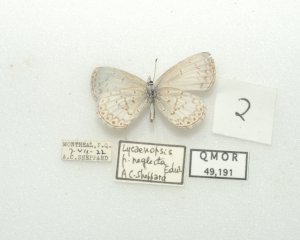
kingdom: Animalia
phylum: Arthropoda
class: Insecta
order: Lepidoptera
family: Lycaenidae
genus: Cyaniris
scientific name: Cyaniris neglecta
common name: Summer Azure
